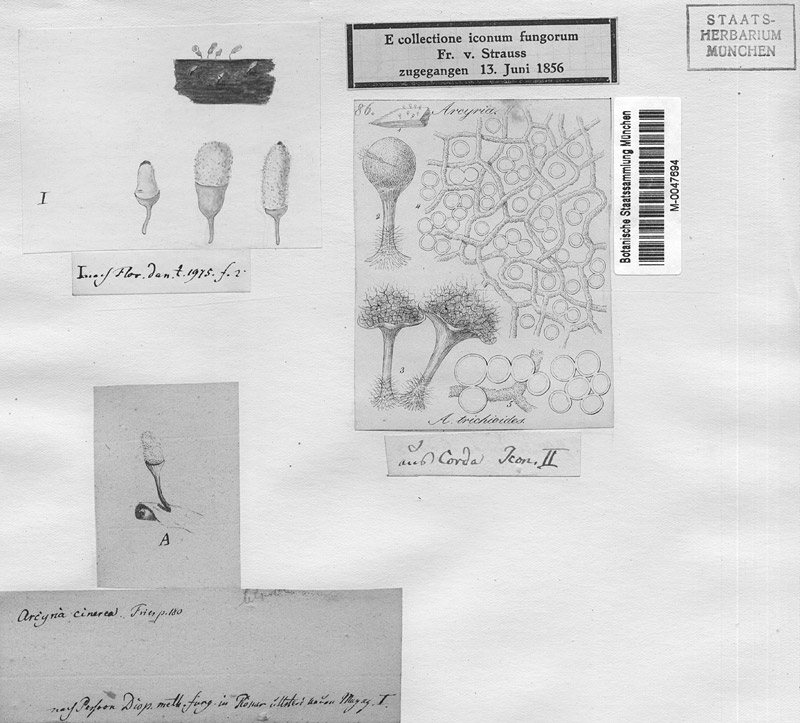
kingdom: Protozoa
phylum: Mycetozoa
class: Myxomycetes
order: Trichiales
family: Arcyriaceae
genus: Arcyria
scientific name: Arcyria cinerea
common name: White carnival candy slime mold
